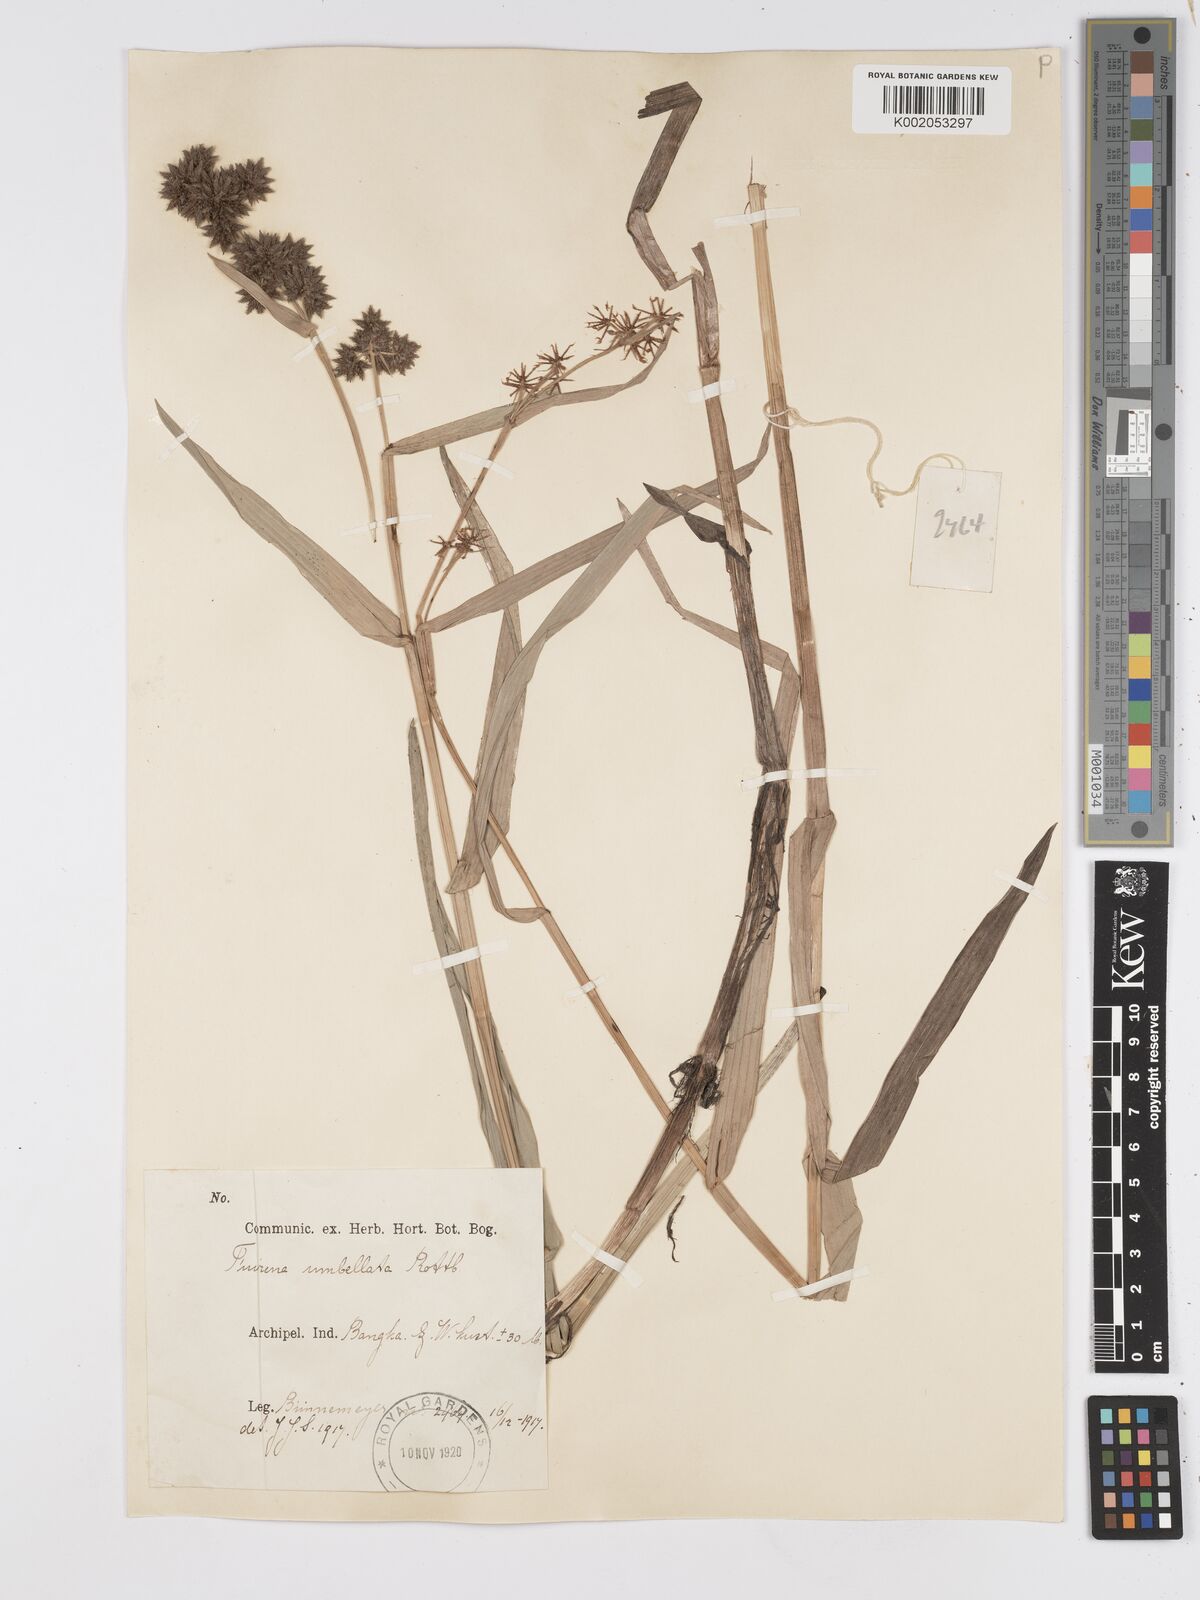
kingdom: Plantae
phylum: Tracheophyta
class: Liliopsida
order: Poales
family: Cyperaceae
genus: Fuirena
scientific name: Fuirena umbellata
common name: Yefen
